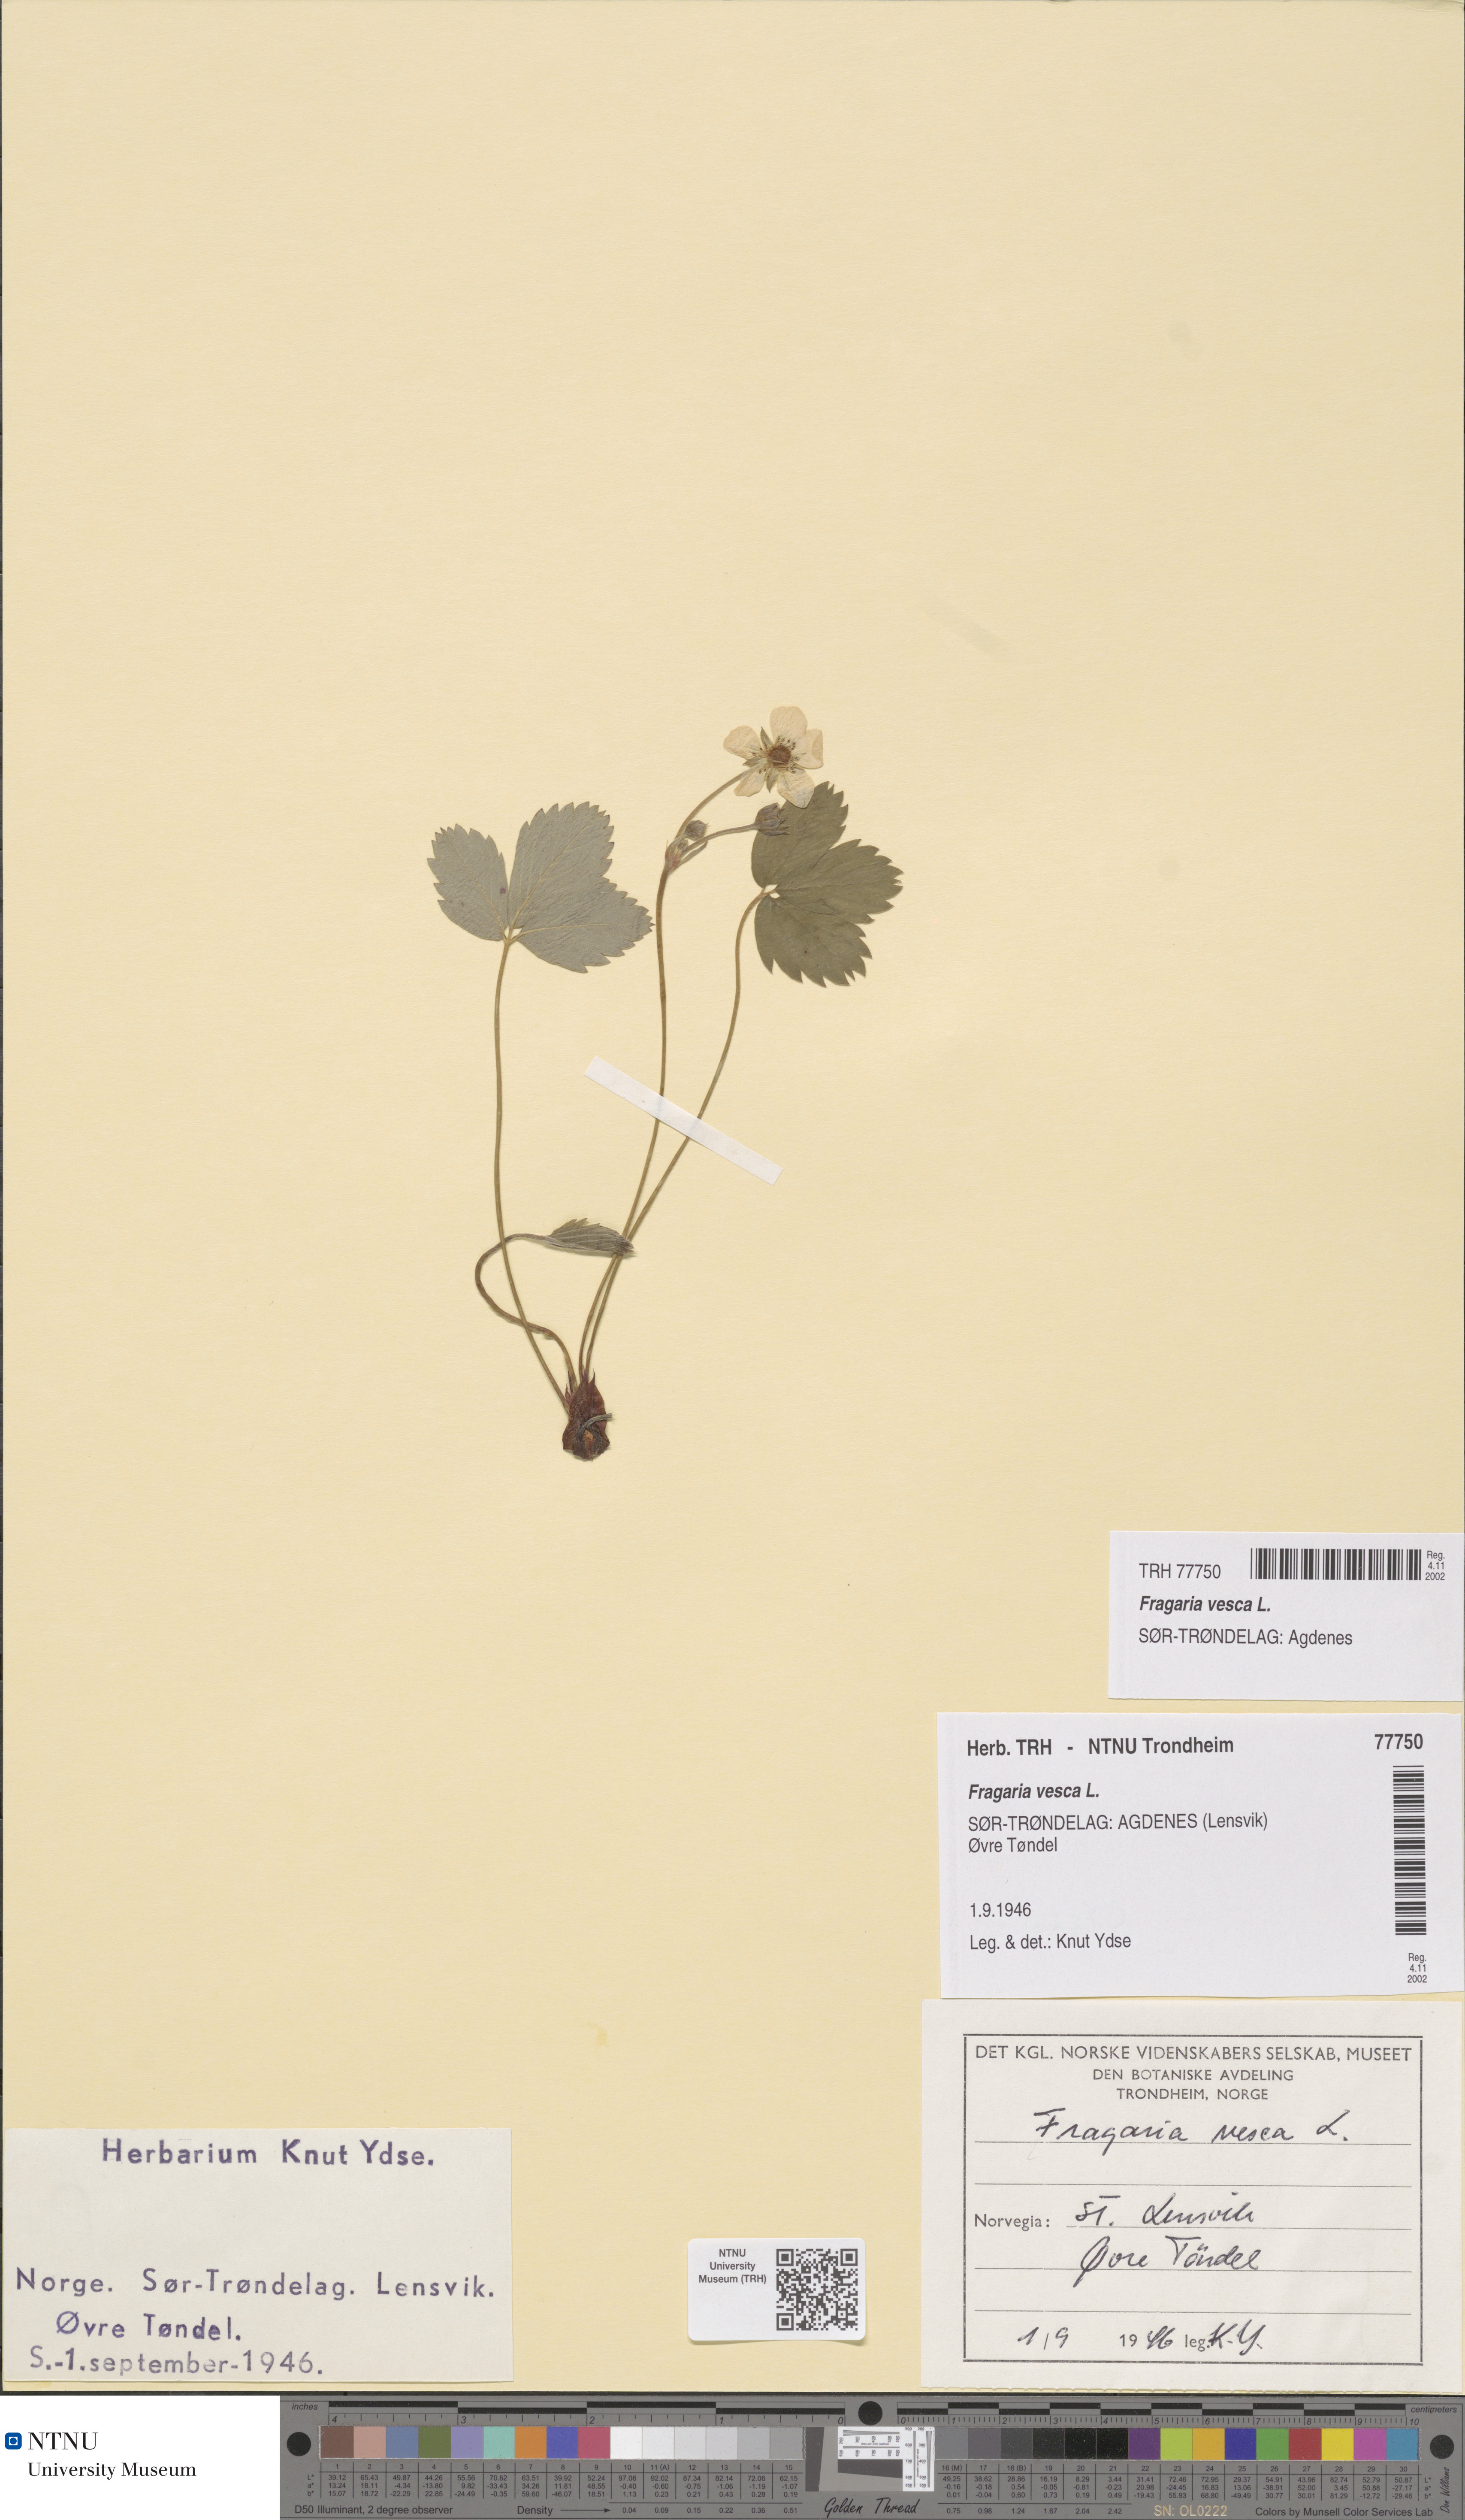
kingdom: Plantae
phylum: Tracheophyta
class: Magnoliopsida
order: Rosales
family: Rosaceae
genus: Fragaria
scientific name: Fragaria vesca
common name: Wild strawberry
